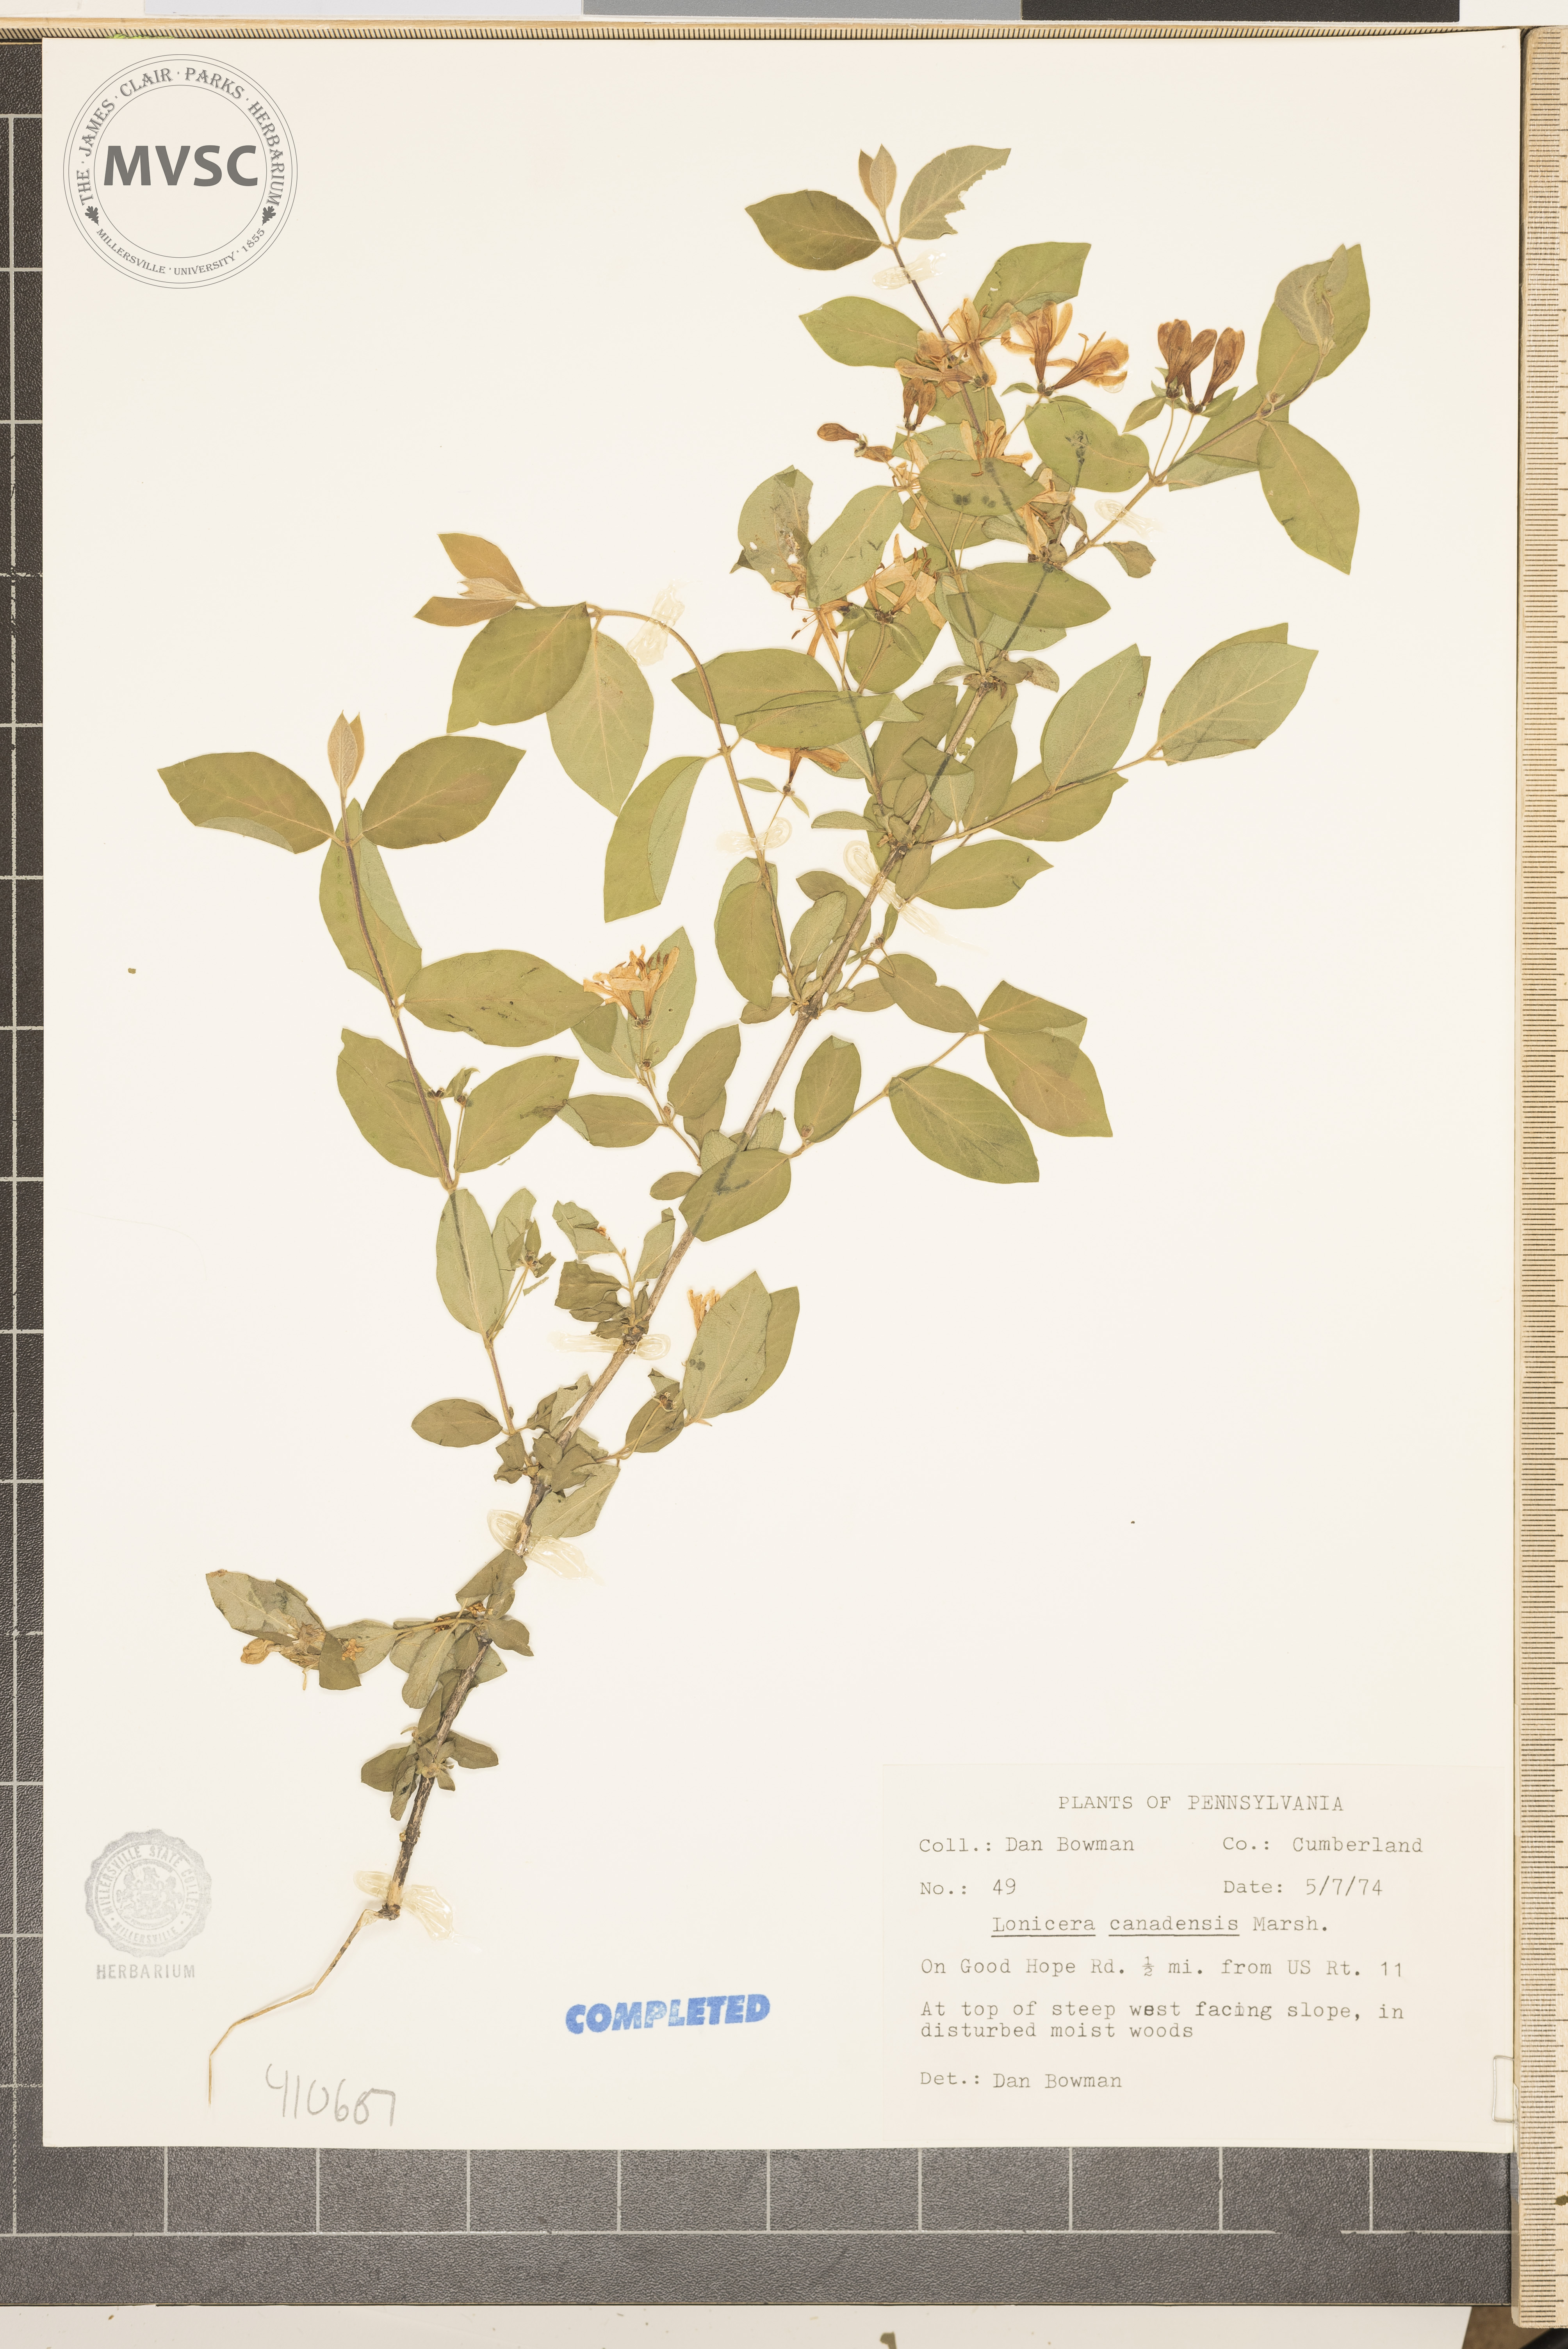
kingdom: Plantae
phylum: Tracheophyta
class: Magnoliopsida
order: Dipsacales
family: Caprifoliaceae
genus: Lonicera
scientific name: Lonicera morrowii
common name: Morrow's honeysuckle
